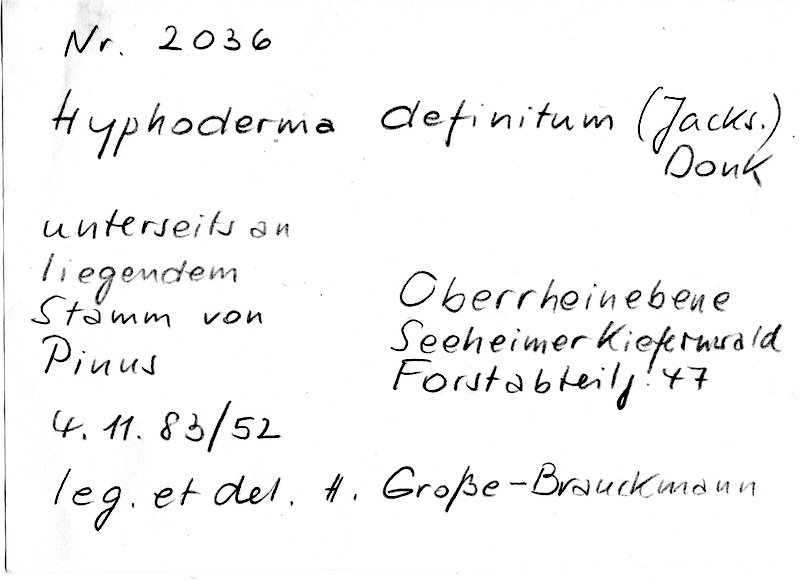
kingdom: Fungi
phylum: Basidiomycota
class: Agaricomycetes
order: Polyporales
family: Hyphodermataceae
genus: Hyphoderma
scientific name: Hyphoderma definitum
